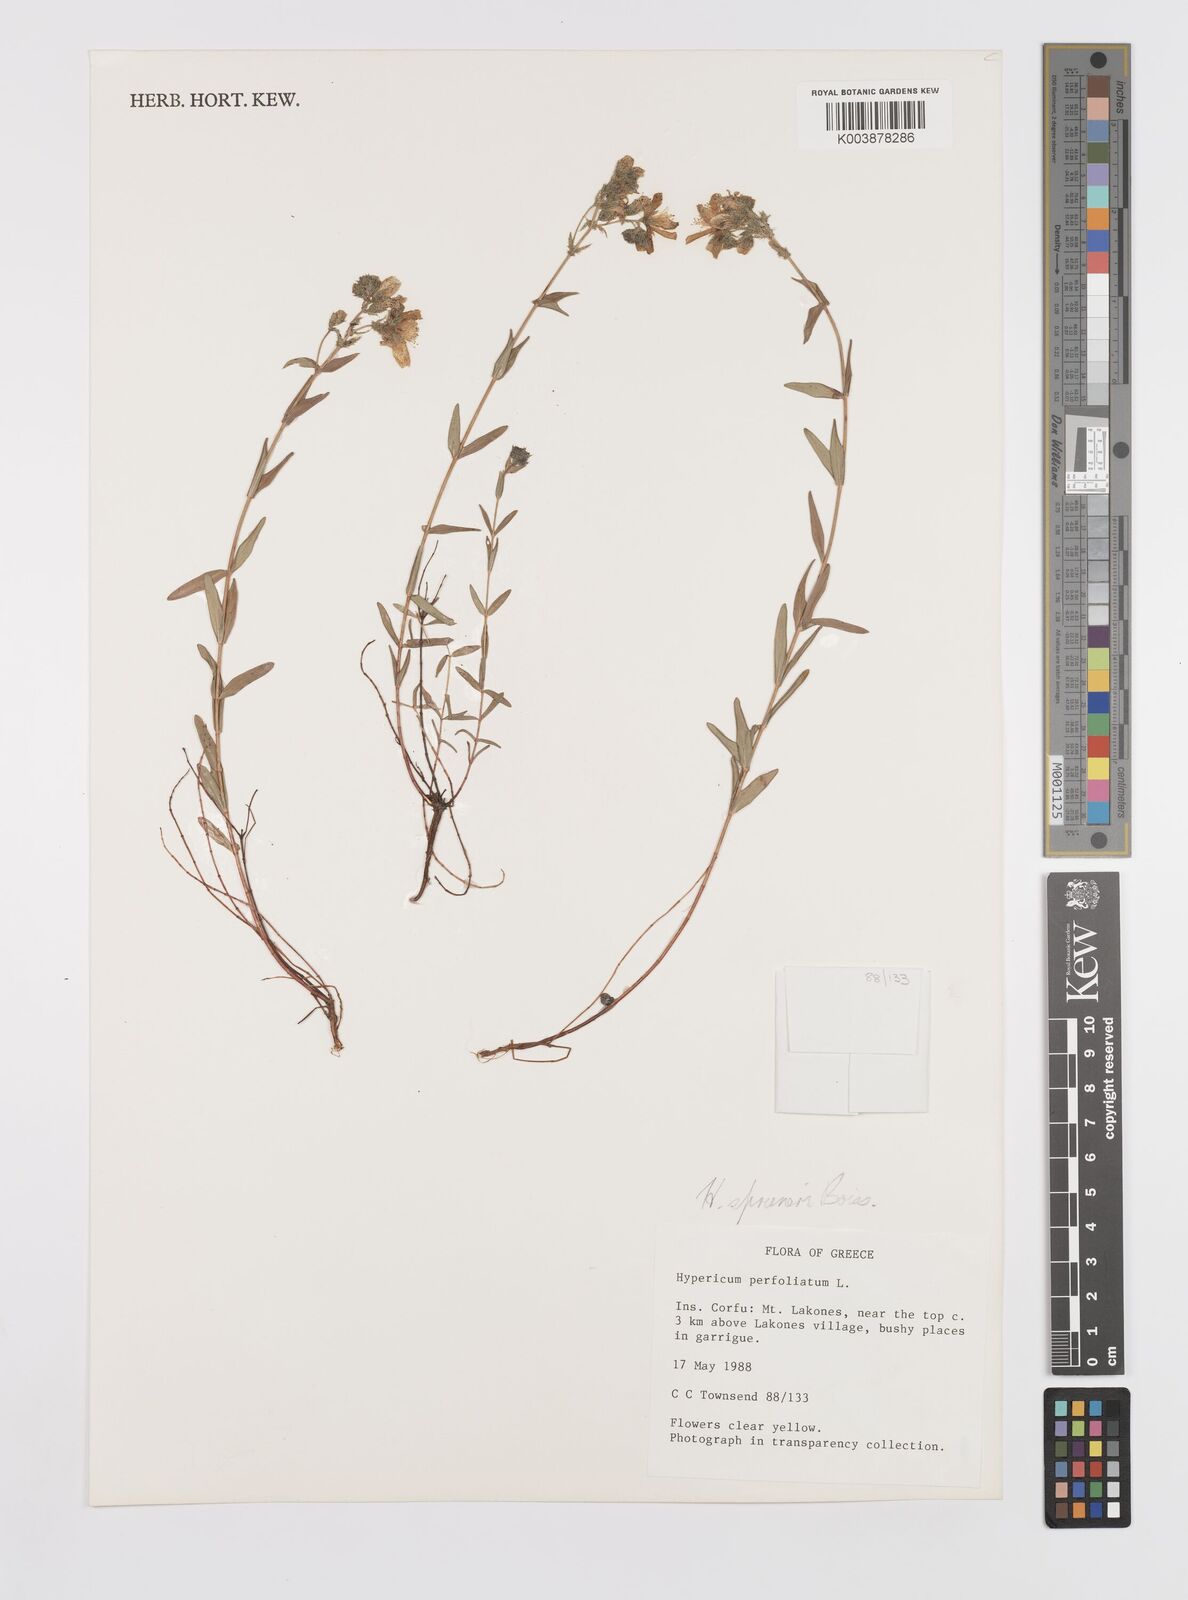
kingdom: Plantae
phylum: Tracheophyta
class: Magnoliopsida
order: Malpighiales
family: Hypericaceae
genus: Hypericum
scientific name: Hypericum spruneri
